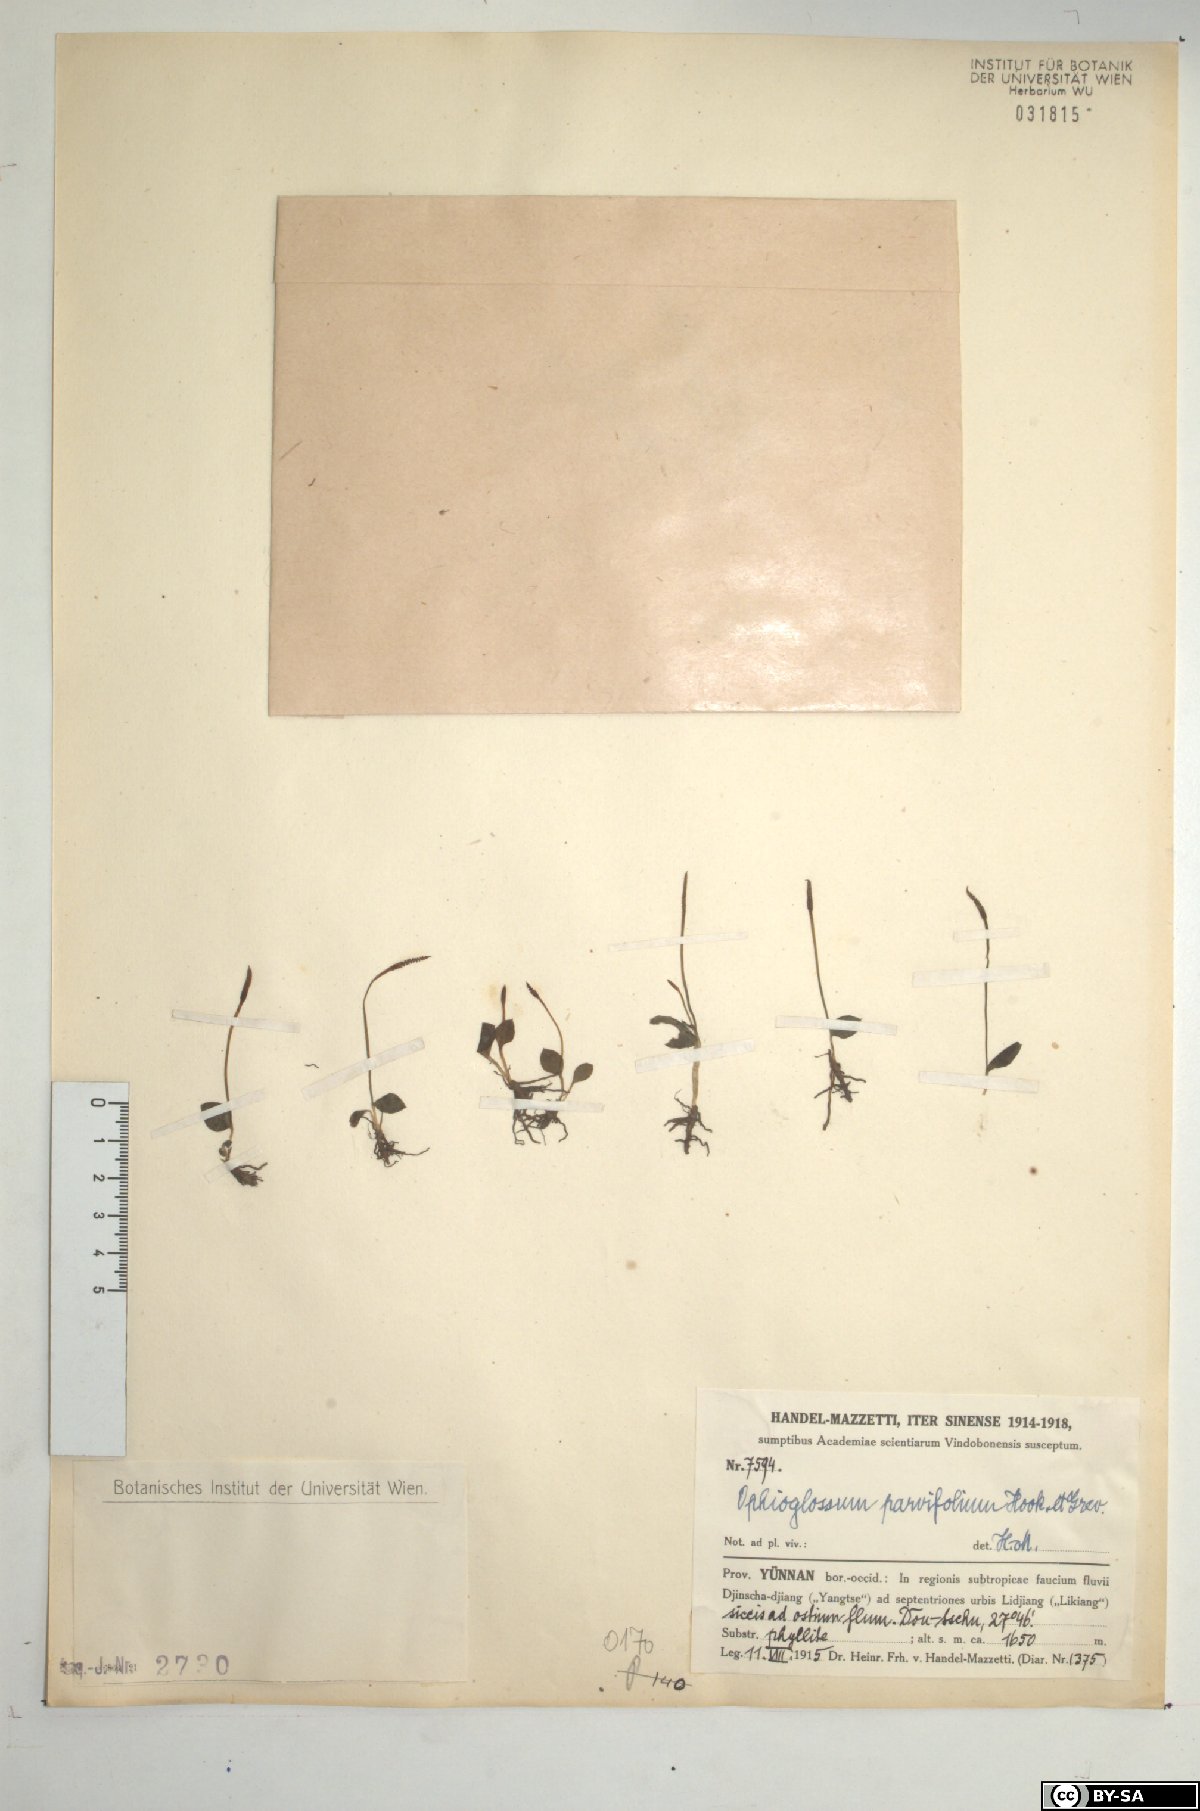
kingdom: Plantae
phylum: Tracheophyta
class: Polypodiopsida
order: Ophioglossales
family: Ophioglossaceae
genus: Ophioglossum
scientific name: Ophioglossum parvifolium
